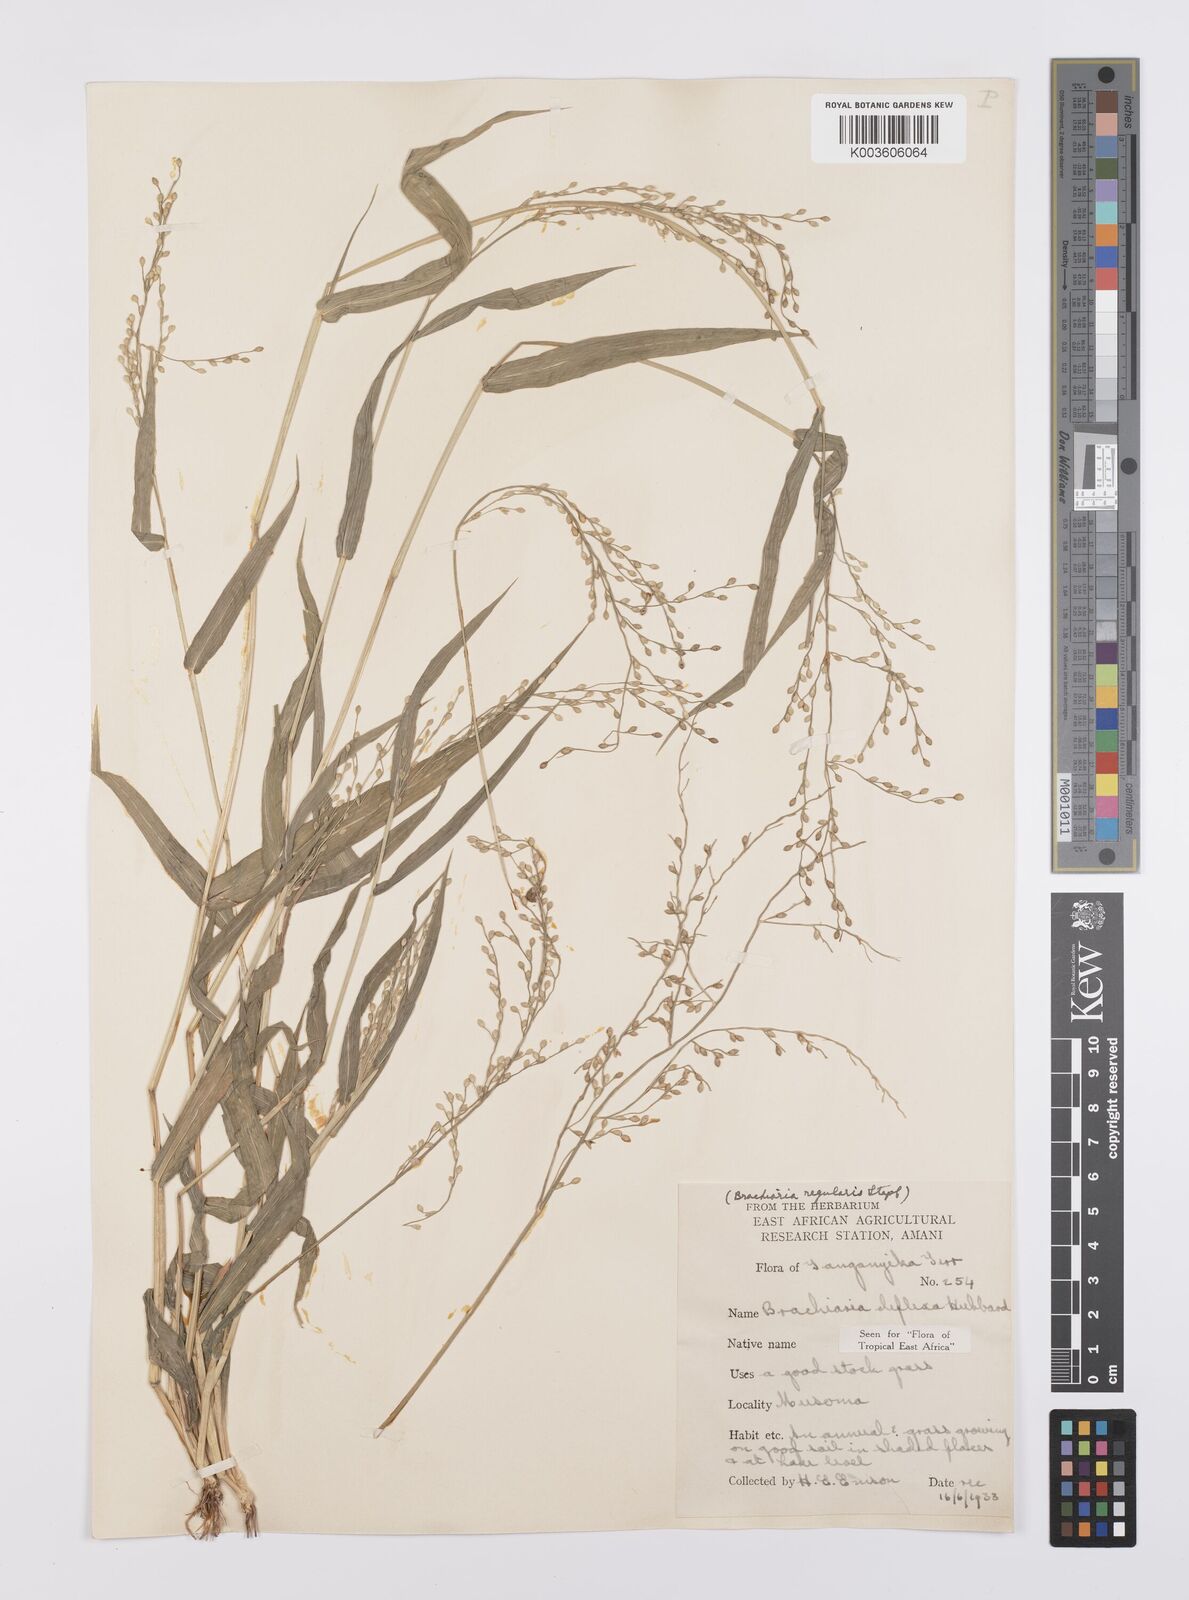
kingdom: Plantae
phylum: Tracheophyta
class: Liliopsida
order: Poales
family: Poaceae
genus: Urochloa
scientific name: Urochloa deflexa
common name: Guinea millet
